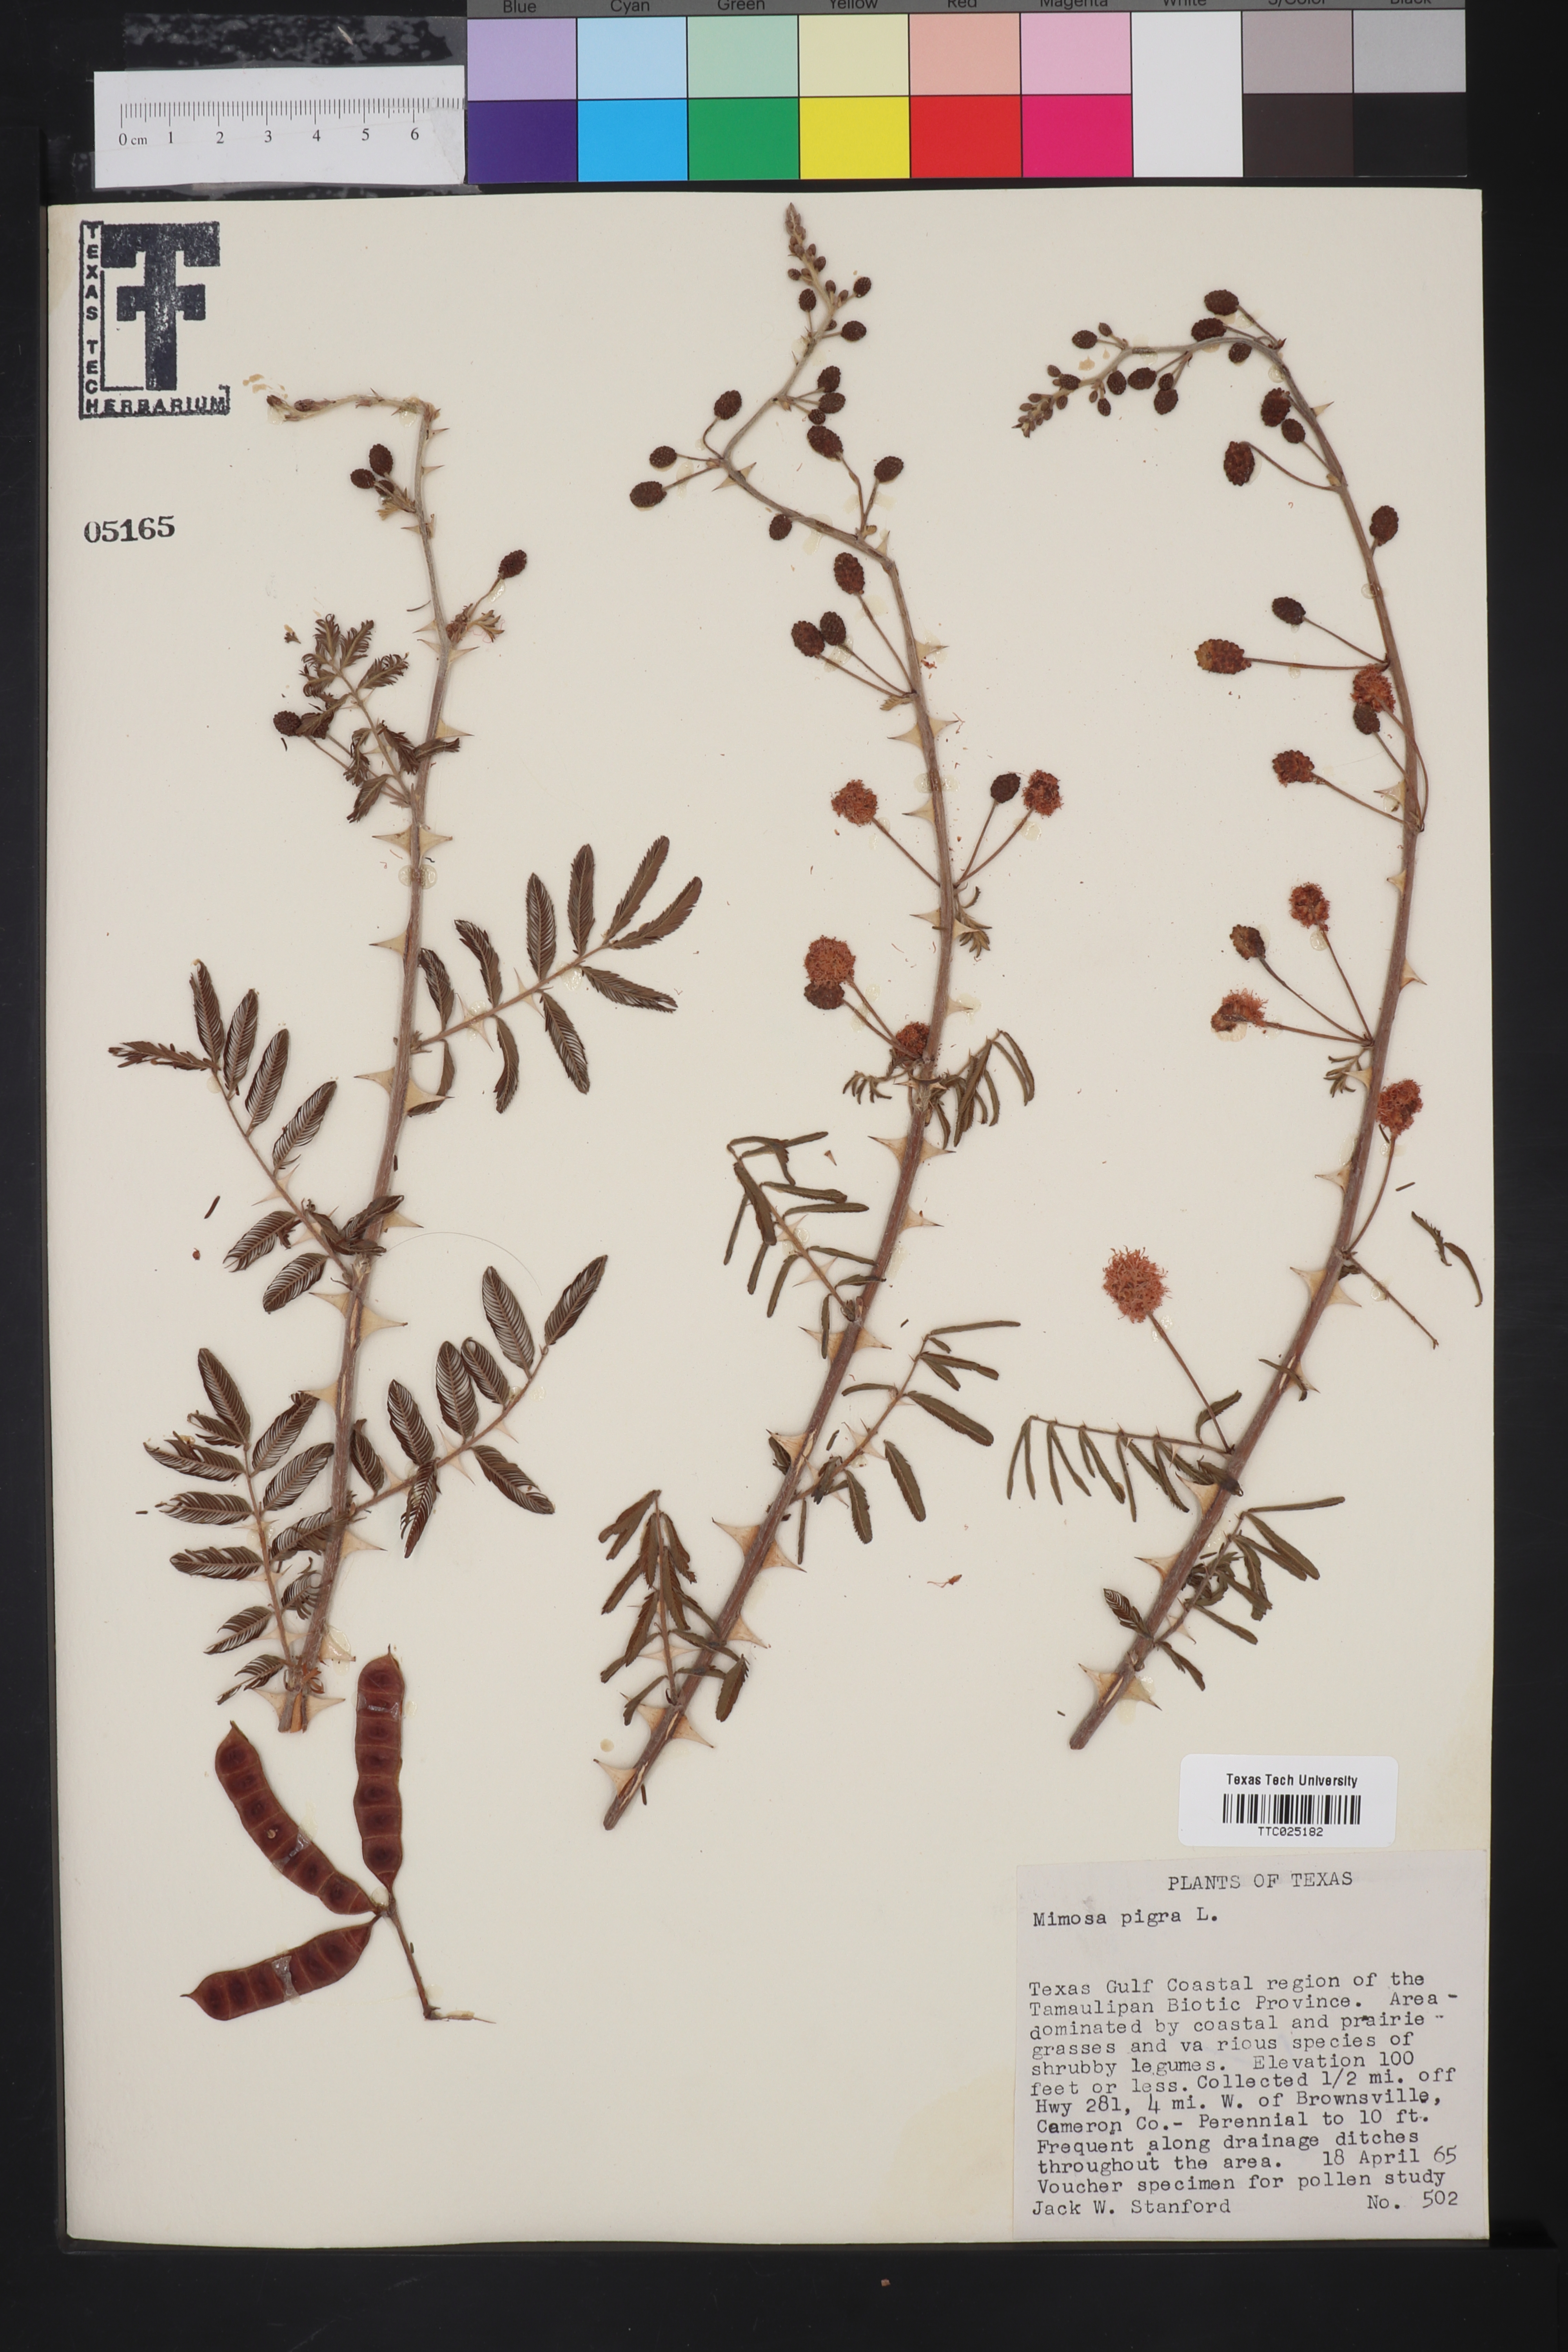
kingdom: Plantae
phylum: Tracheophyta
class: Magnoliopsida
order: Fabales
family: Fabaceae
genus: Mimosa
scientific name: Mimosa tenuiflora
